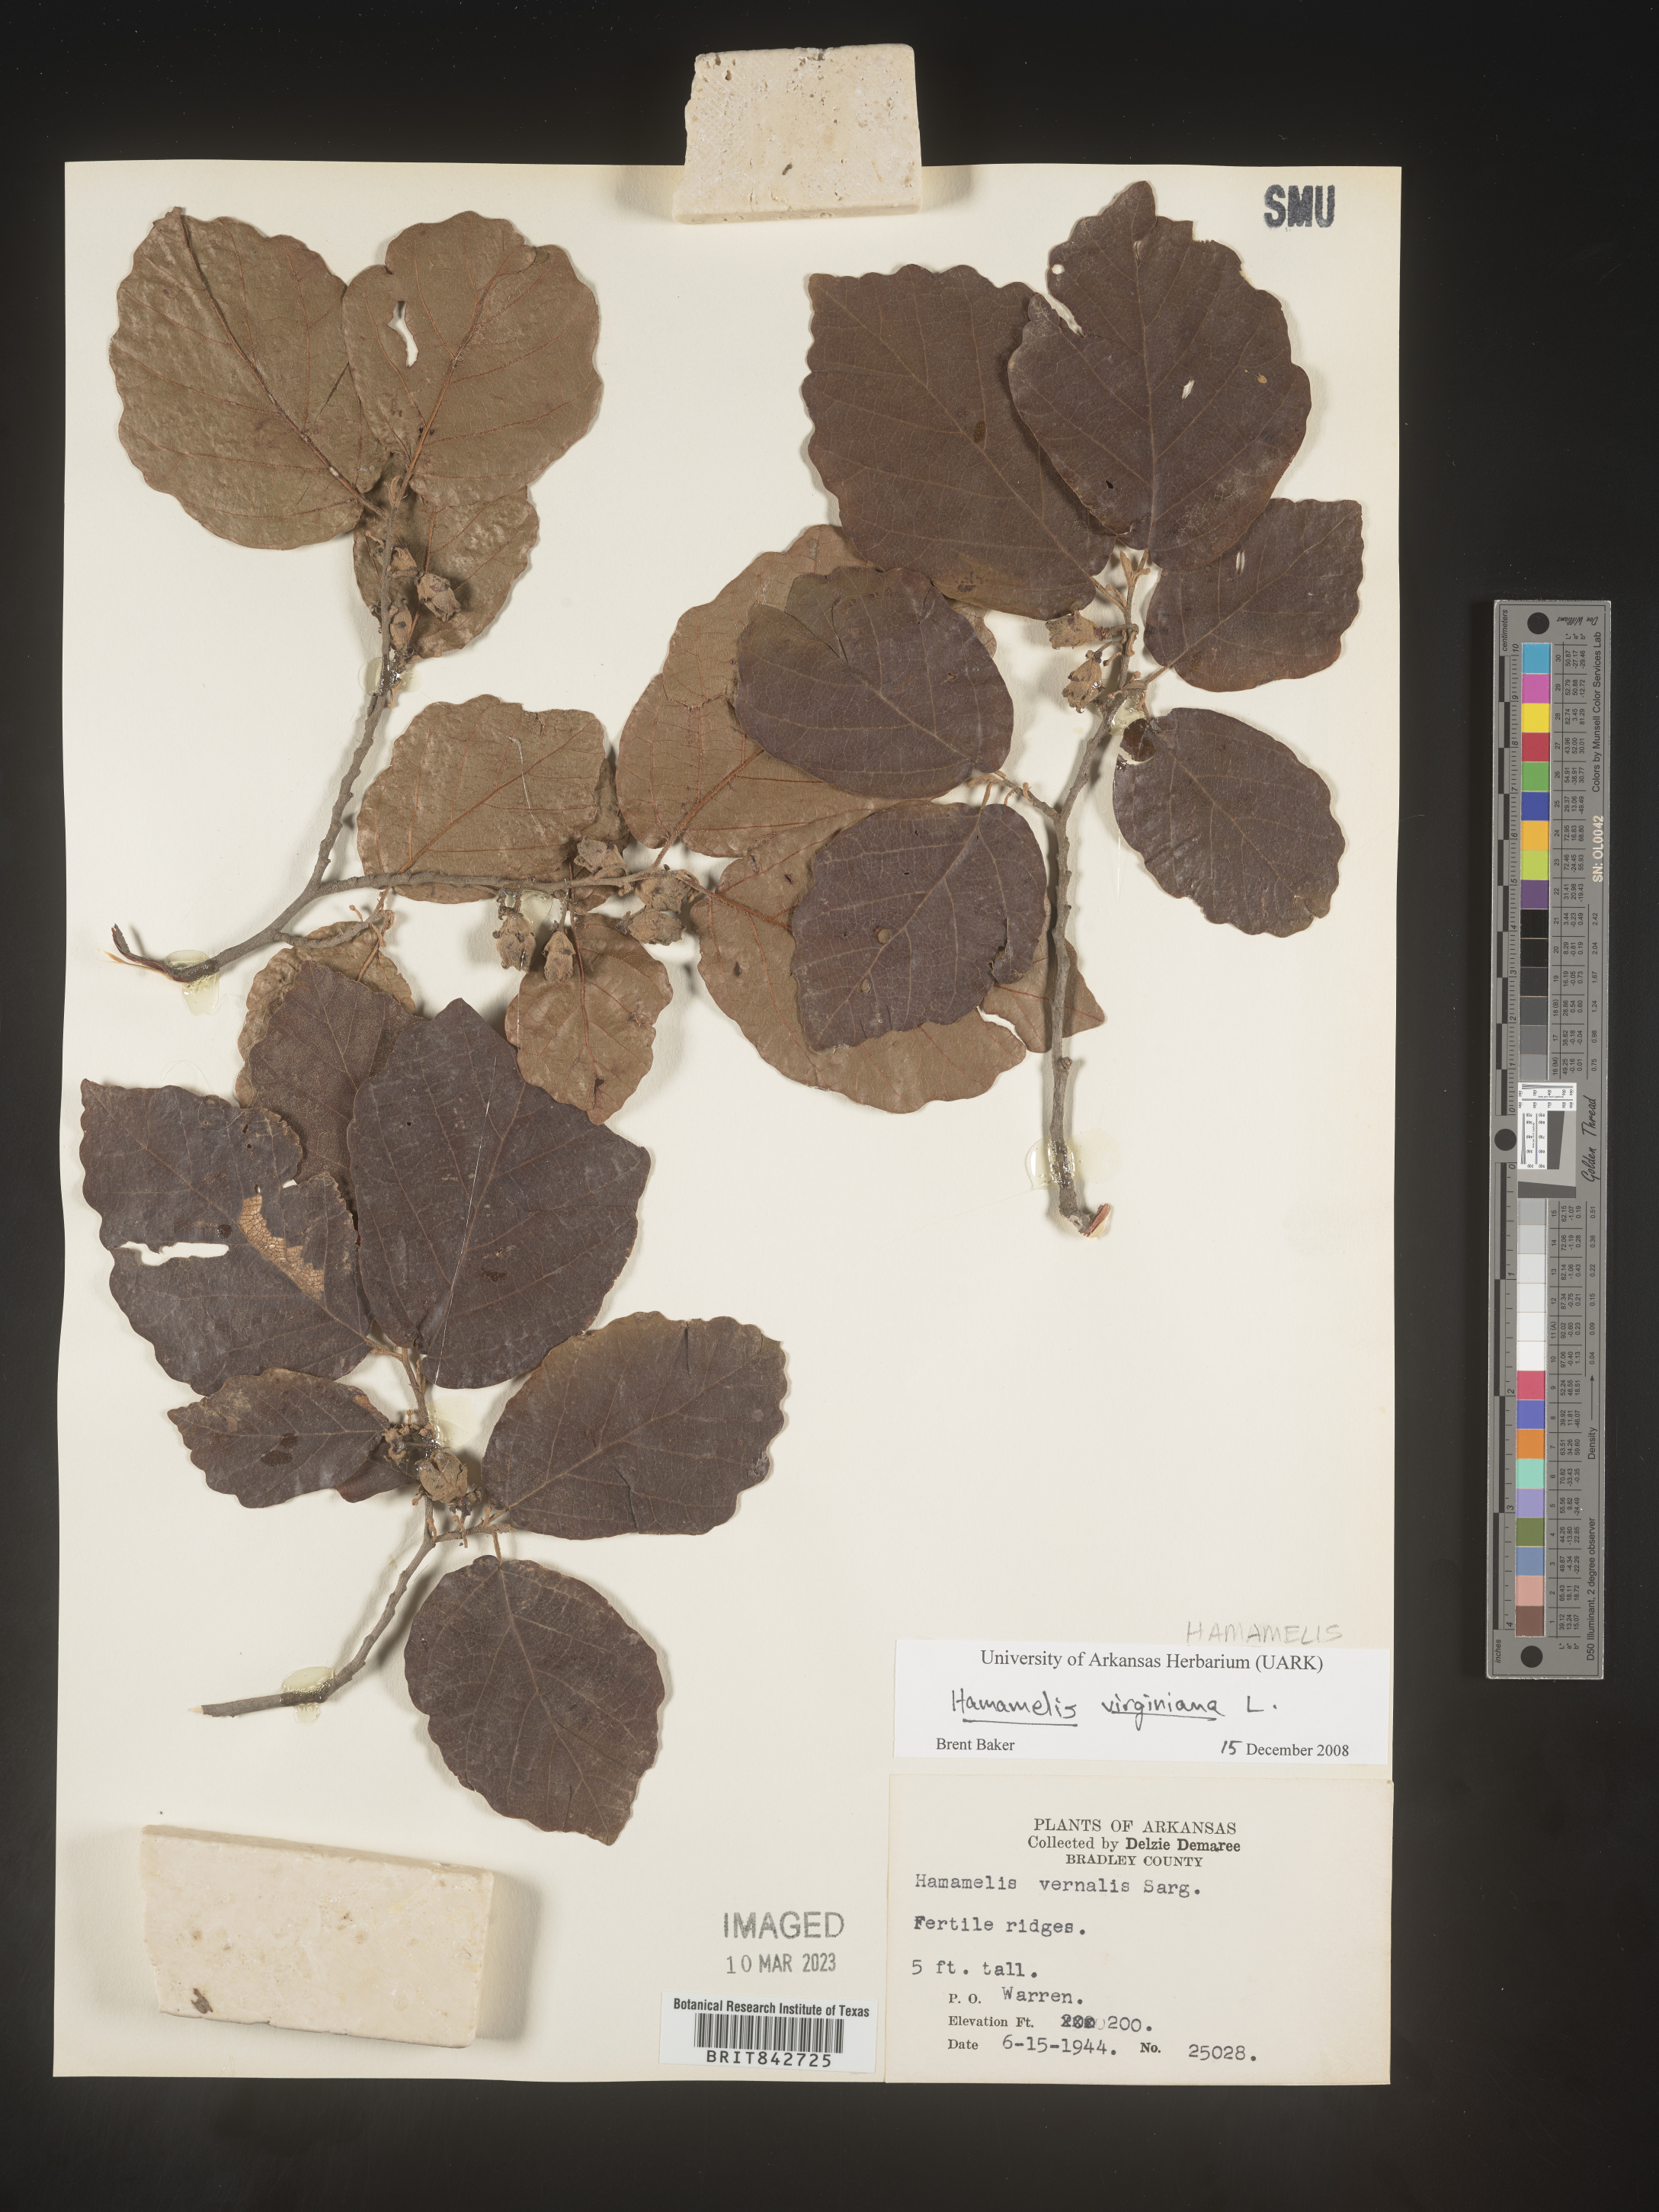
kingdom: Plantae
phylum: Tracheophyta
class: Magnoliopsida
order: Saxifragales
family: Hamamelidaceae
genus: Hamamelis
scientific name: Hamamelis virginiana
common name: Witch-hazel
